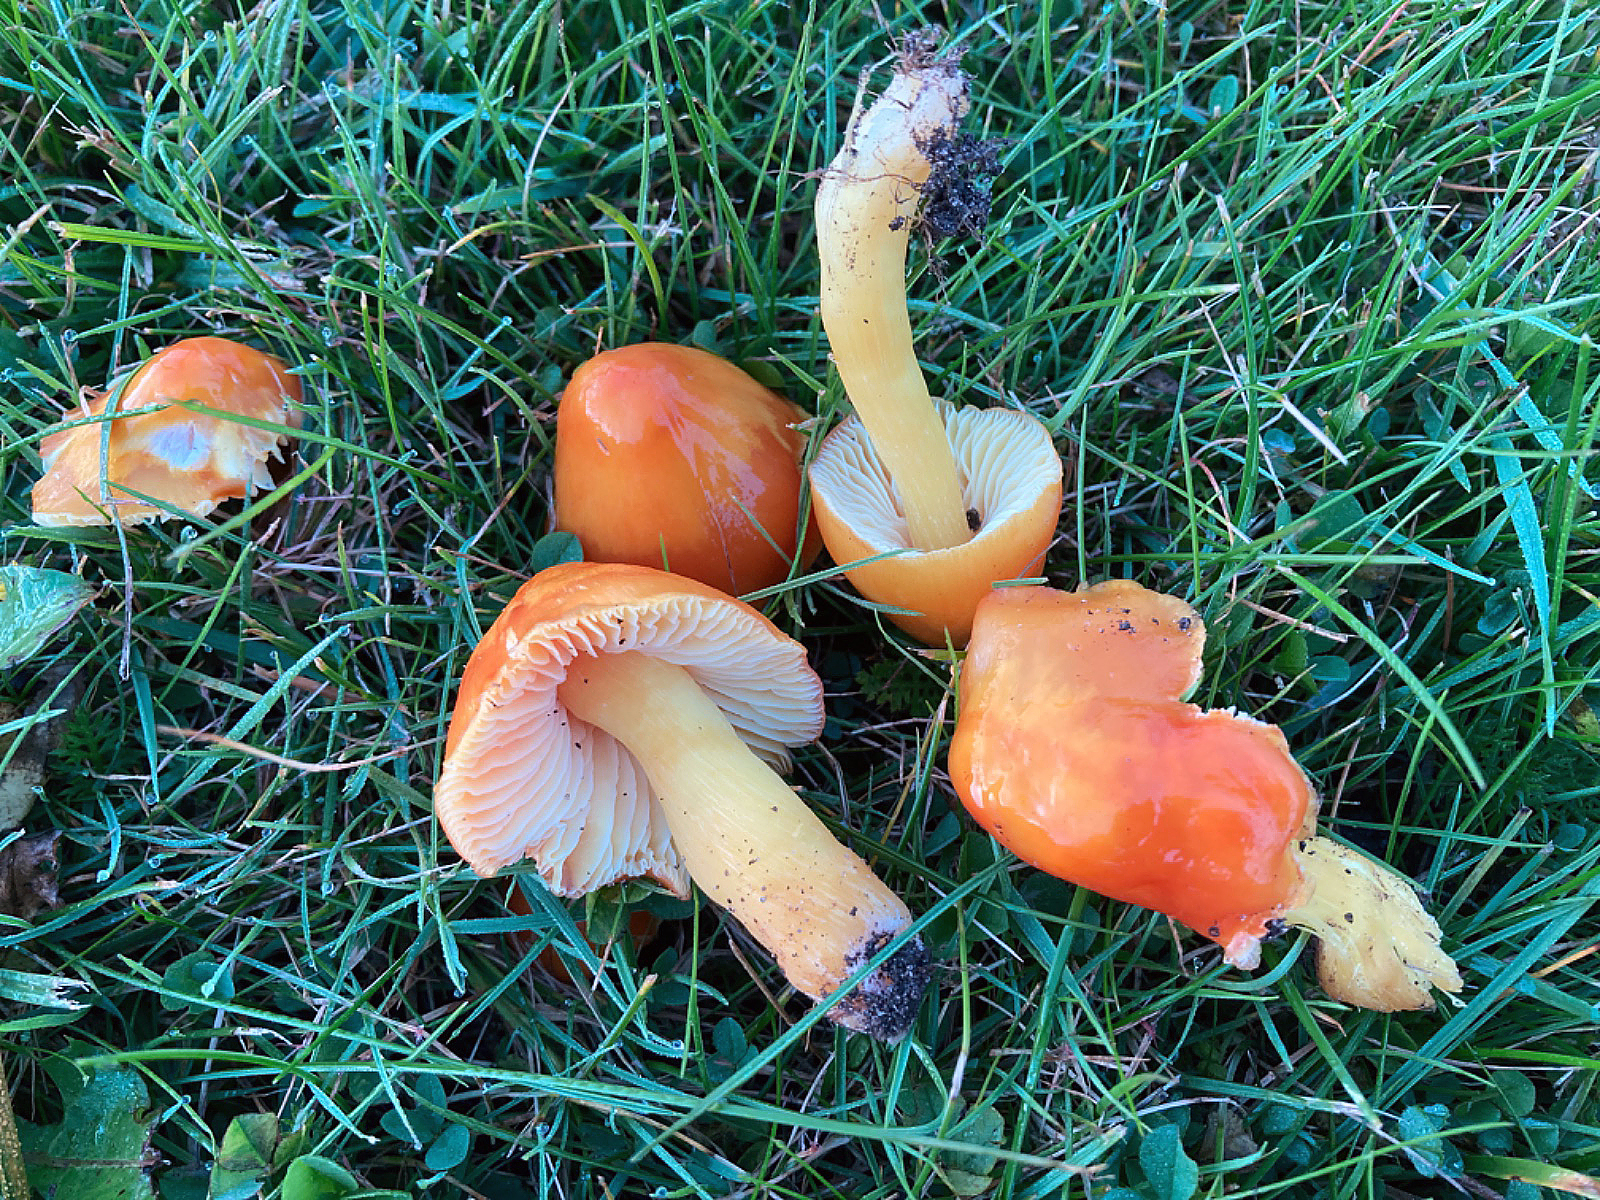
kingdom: Fungi
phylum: Basidiomycota
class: Agaricomycetes
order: Agaricales
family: Hygrophoraceae
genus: Hygrocybe
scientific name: Hygrocybe aurantiosplendens
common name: orangegylden vokshat
